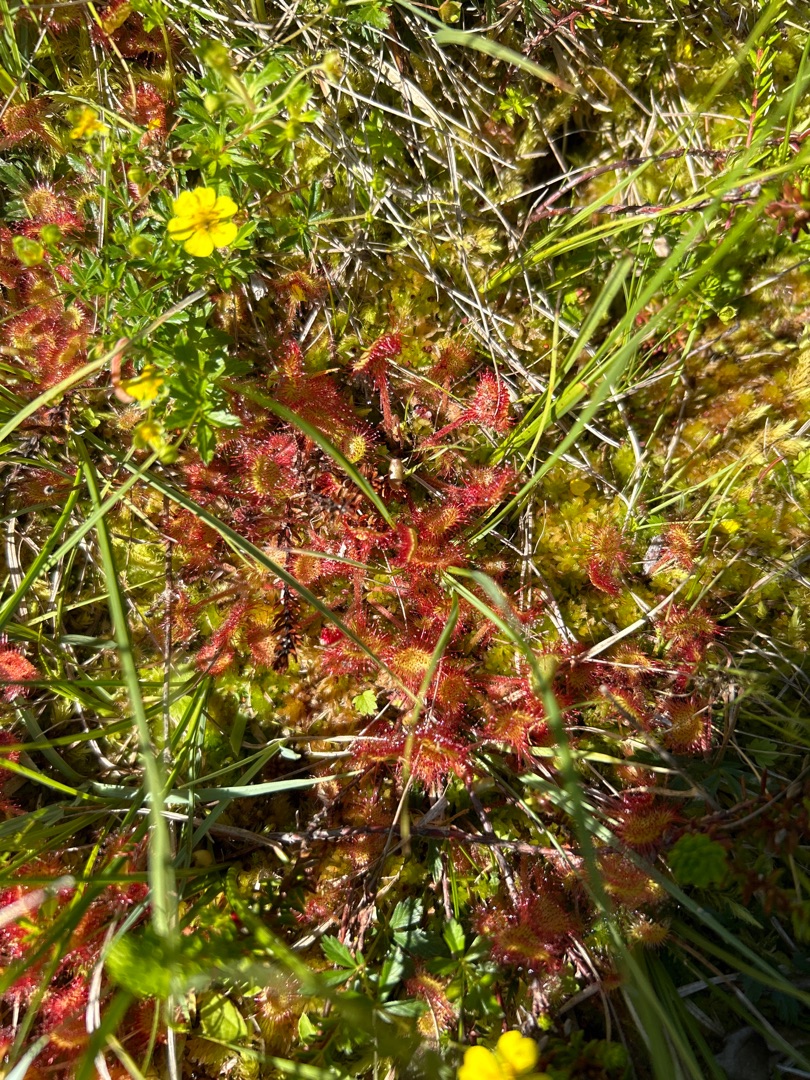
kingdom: Plantae
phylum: Tracheophyta
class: Magnoliopsida
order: Caryophyllales
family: Droseraceae
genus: Drosera
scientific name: Drosera rotundifolia
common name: Rundbladet soldug
